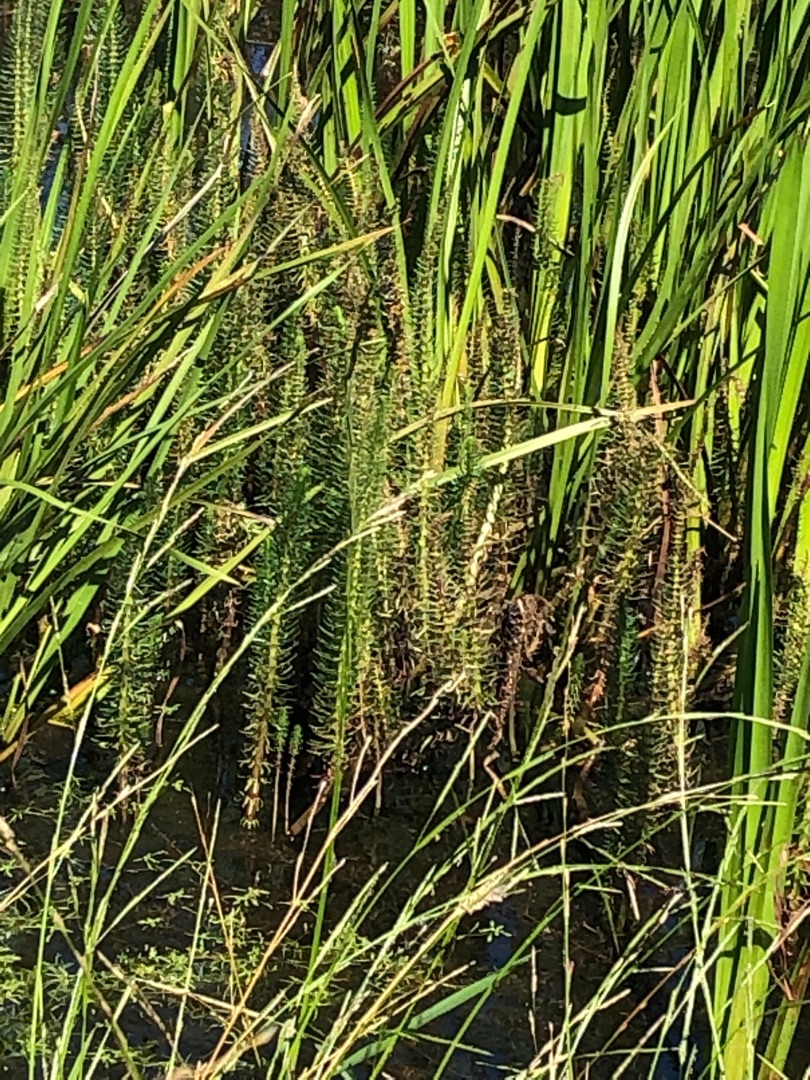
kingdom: Plantae
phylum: Tracheophyta
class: Magnoliopsida
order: Lamiales
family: Plantaginaceae
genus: Hippuris
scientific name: Hippuris vulgaris
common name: Vandspir
